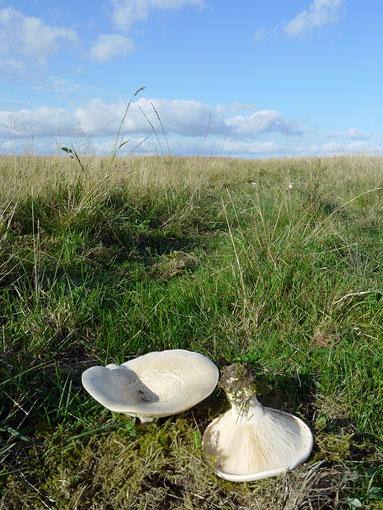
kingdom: Fungi
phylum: Basidiomycota
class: Agaricomycetes
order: Agaricales
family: Tricholomataceae
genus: Aspropaxillus
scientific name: Aspropaxillus giganteus
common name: kæmpe-tragtridderhat
